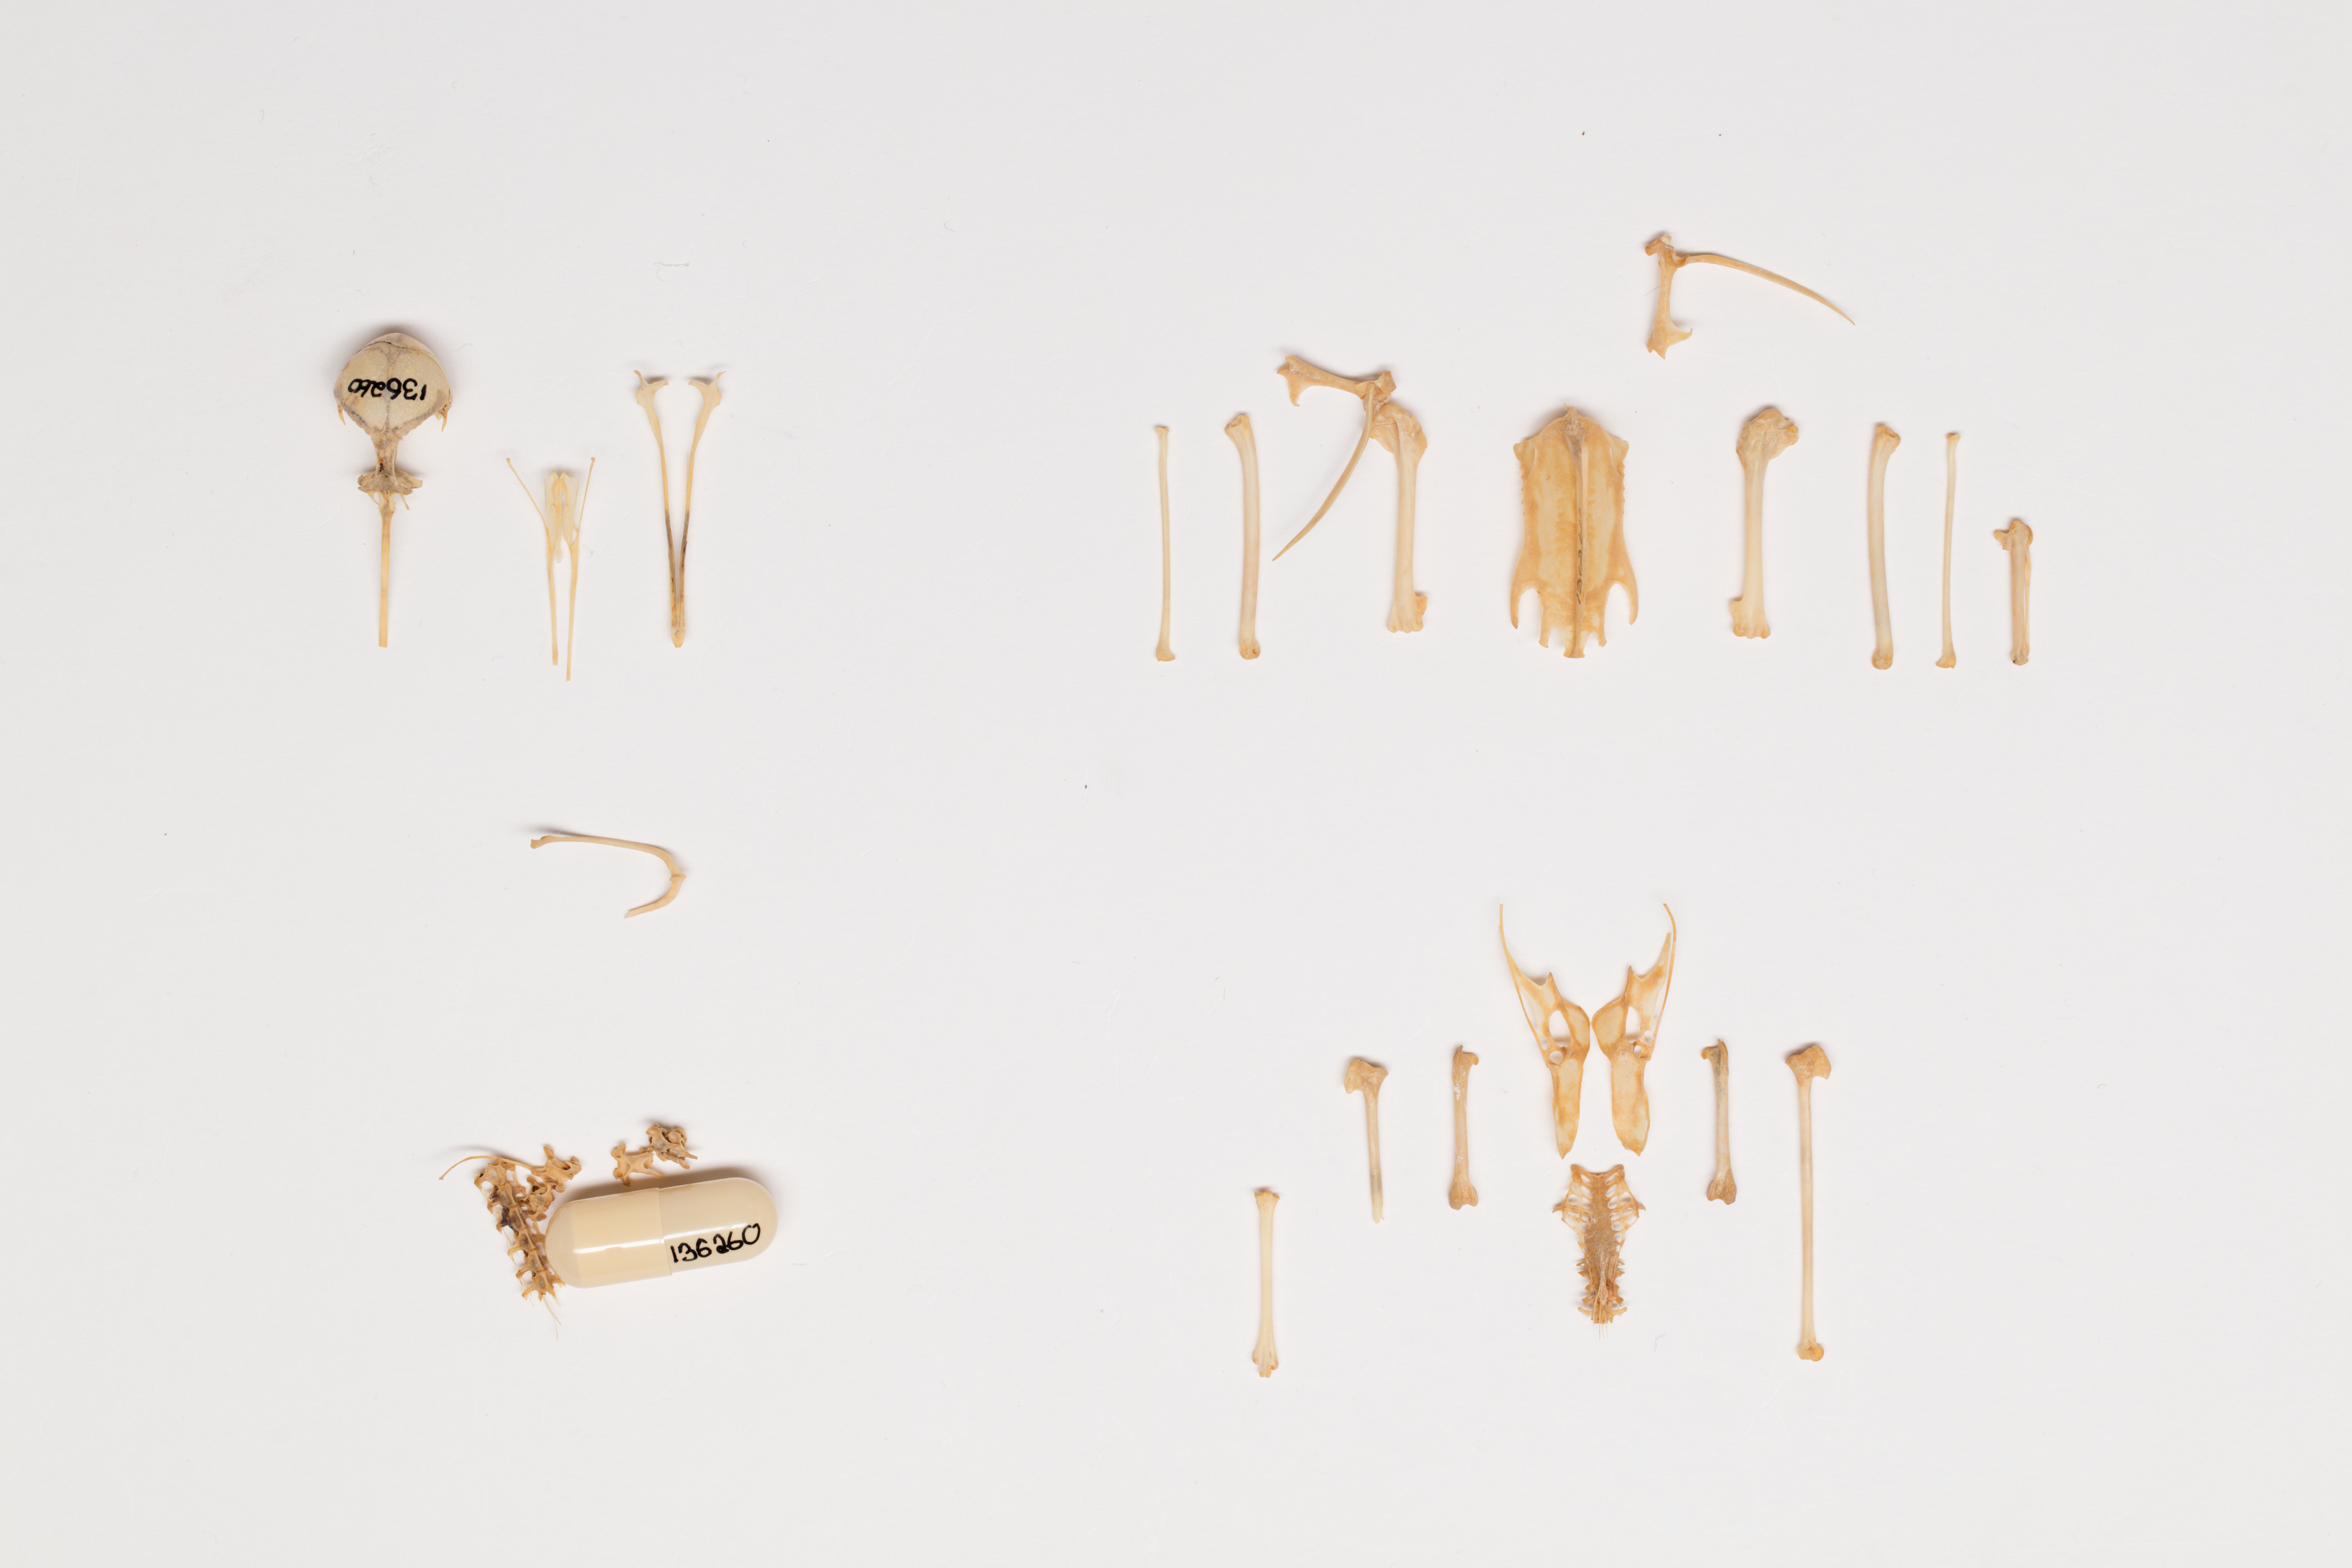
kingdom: Animalia
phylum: Chordata
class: Aves
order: Charadriiformes
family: Scolopacidae
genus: Calidris
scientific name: Calidris ruficollis
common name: Red-necked stint
